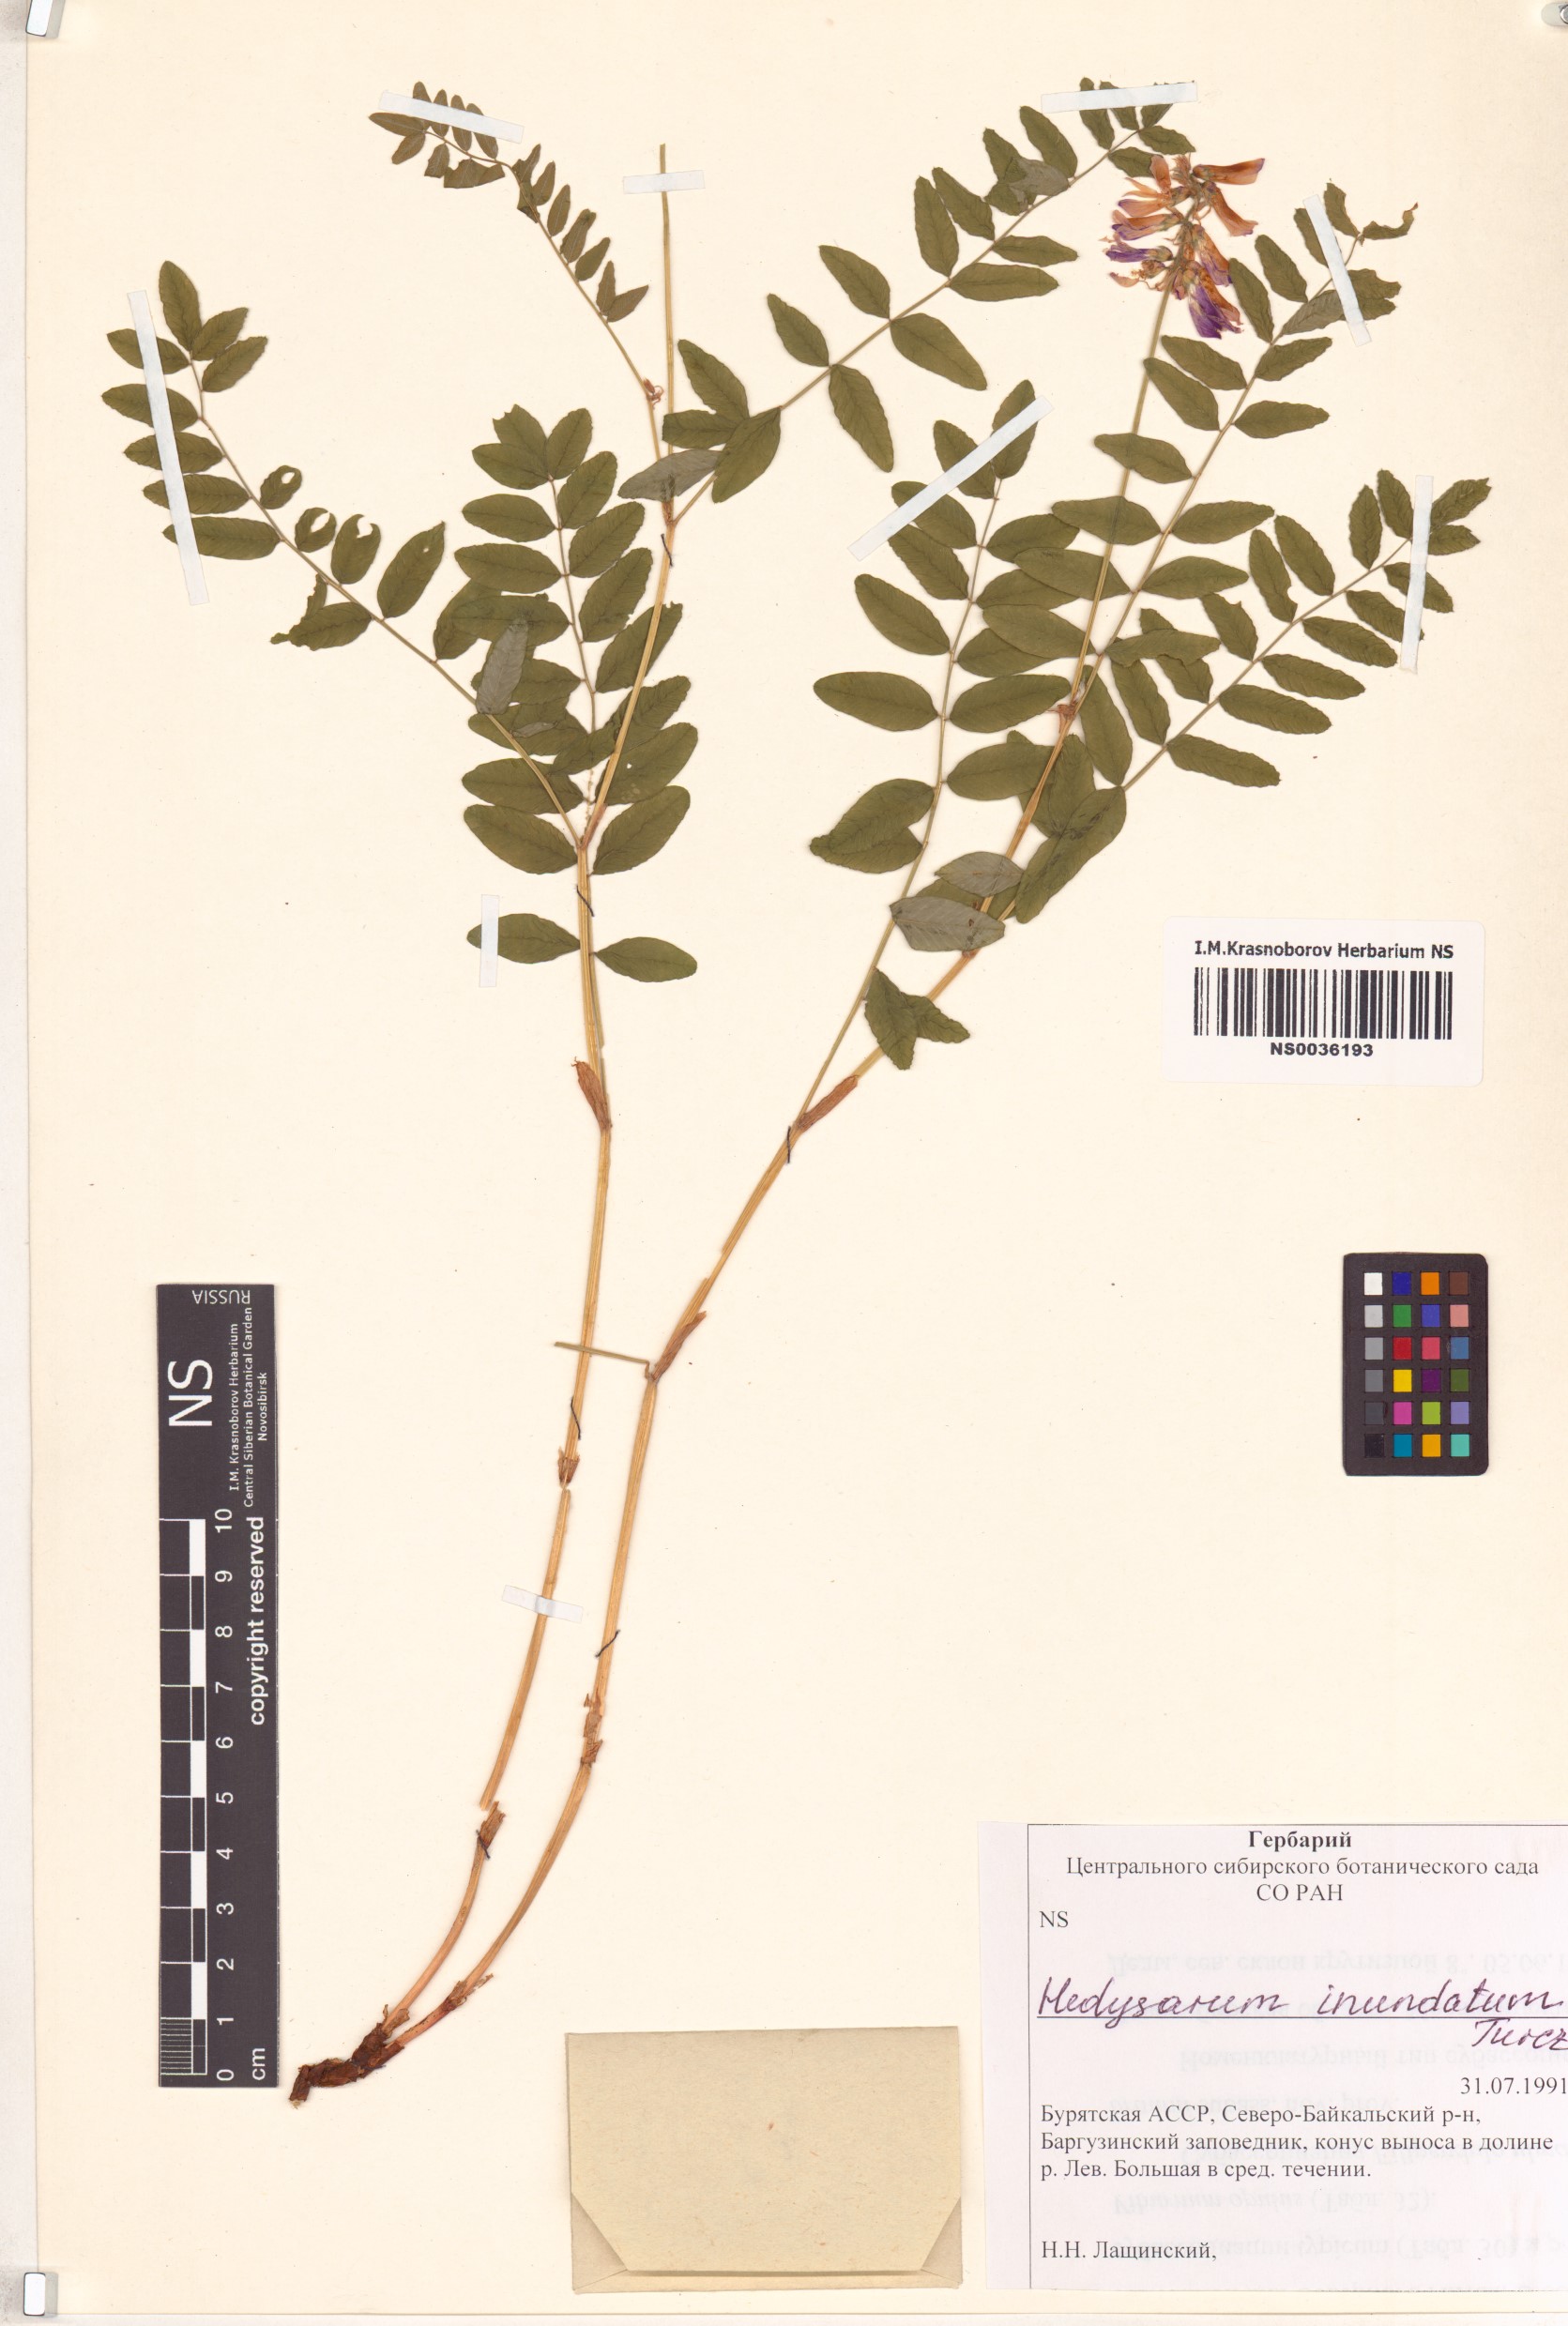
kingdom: Plantae
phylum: Tracheophyta
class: Magnoliopsida
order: Fabales
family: Fabaceae
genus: Hedysarum
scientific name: Hedysarum inundatum
